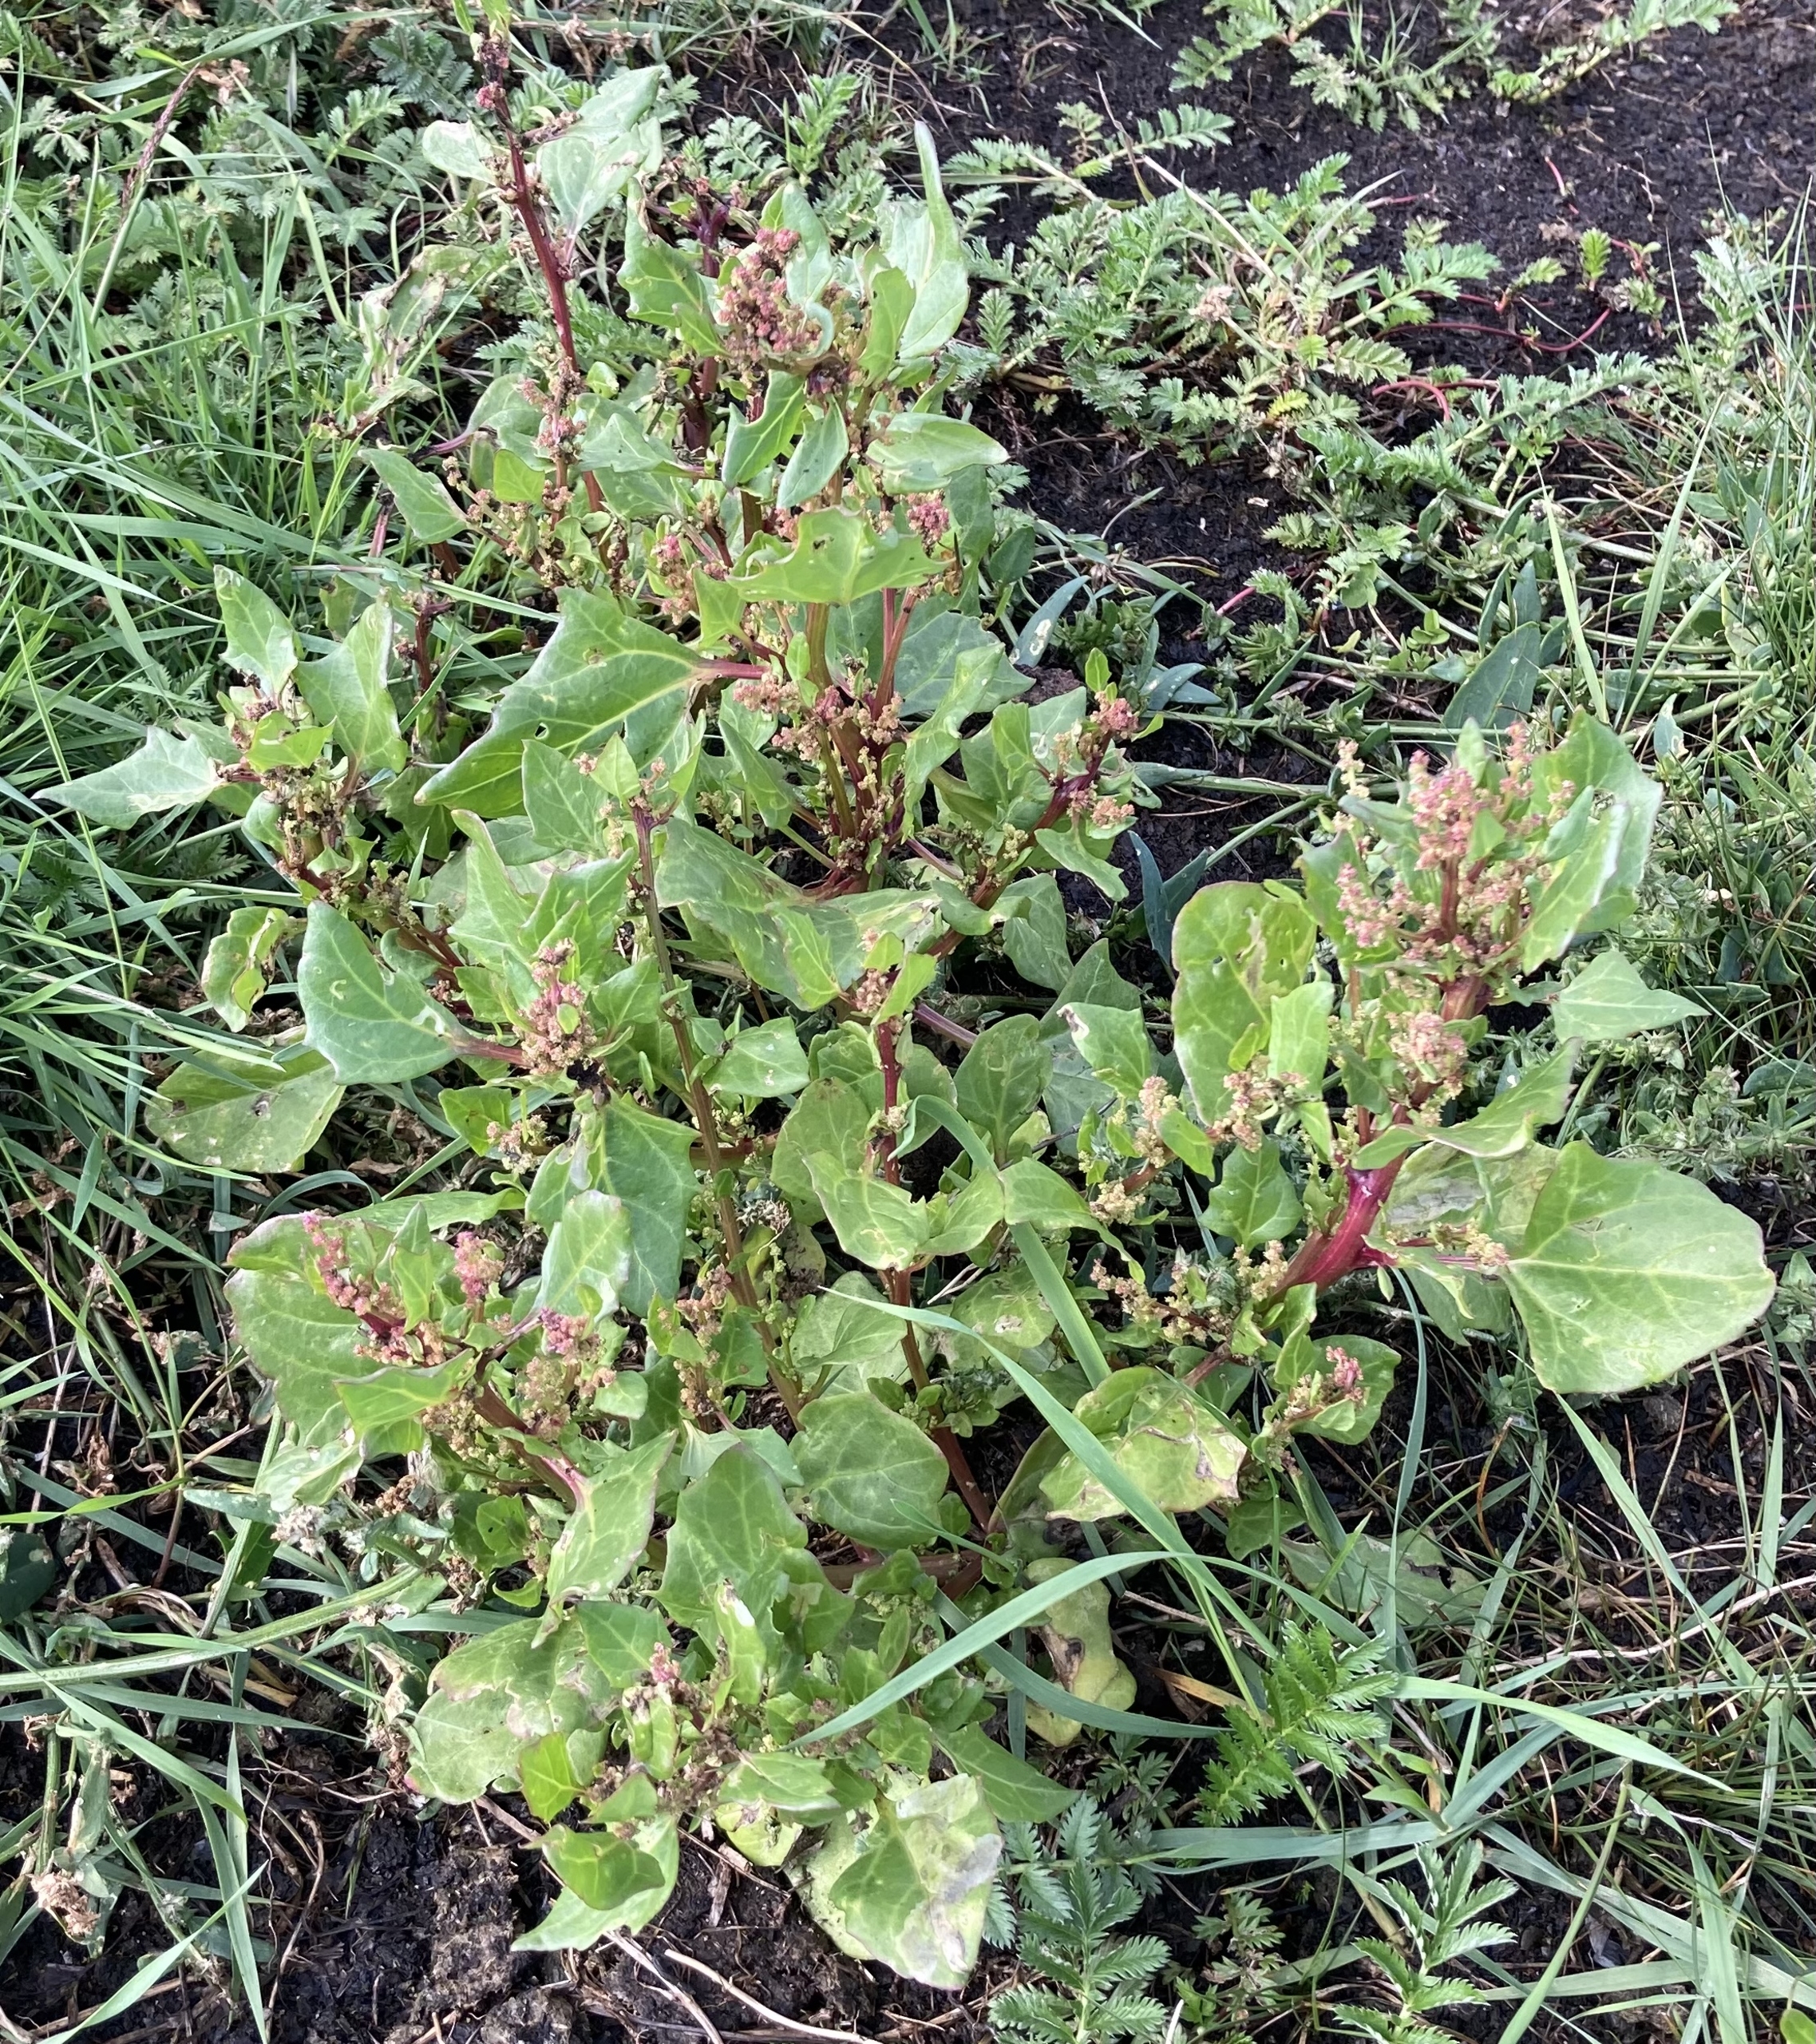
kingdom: Plantae
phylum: Tracheophyta
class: Magnoliopsida
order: Caryophyllales
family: Amaranthaceae
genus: Oxybasis
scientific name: Oxybasis rubra
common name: Rød gåsefod
